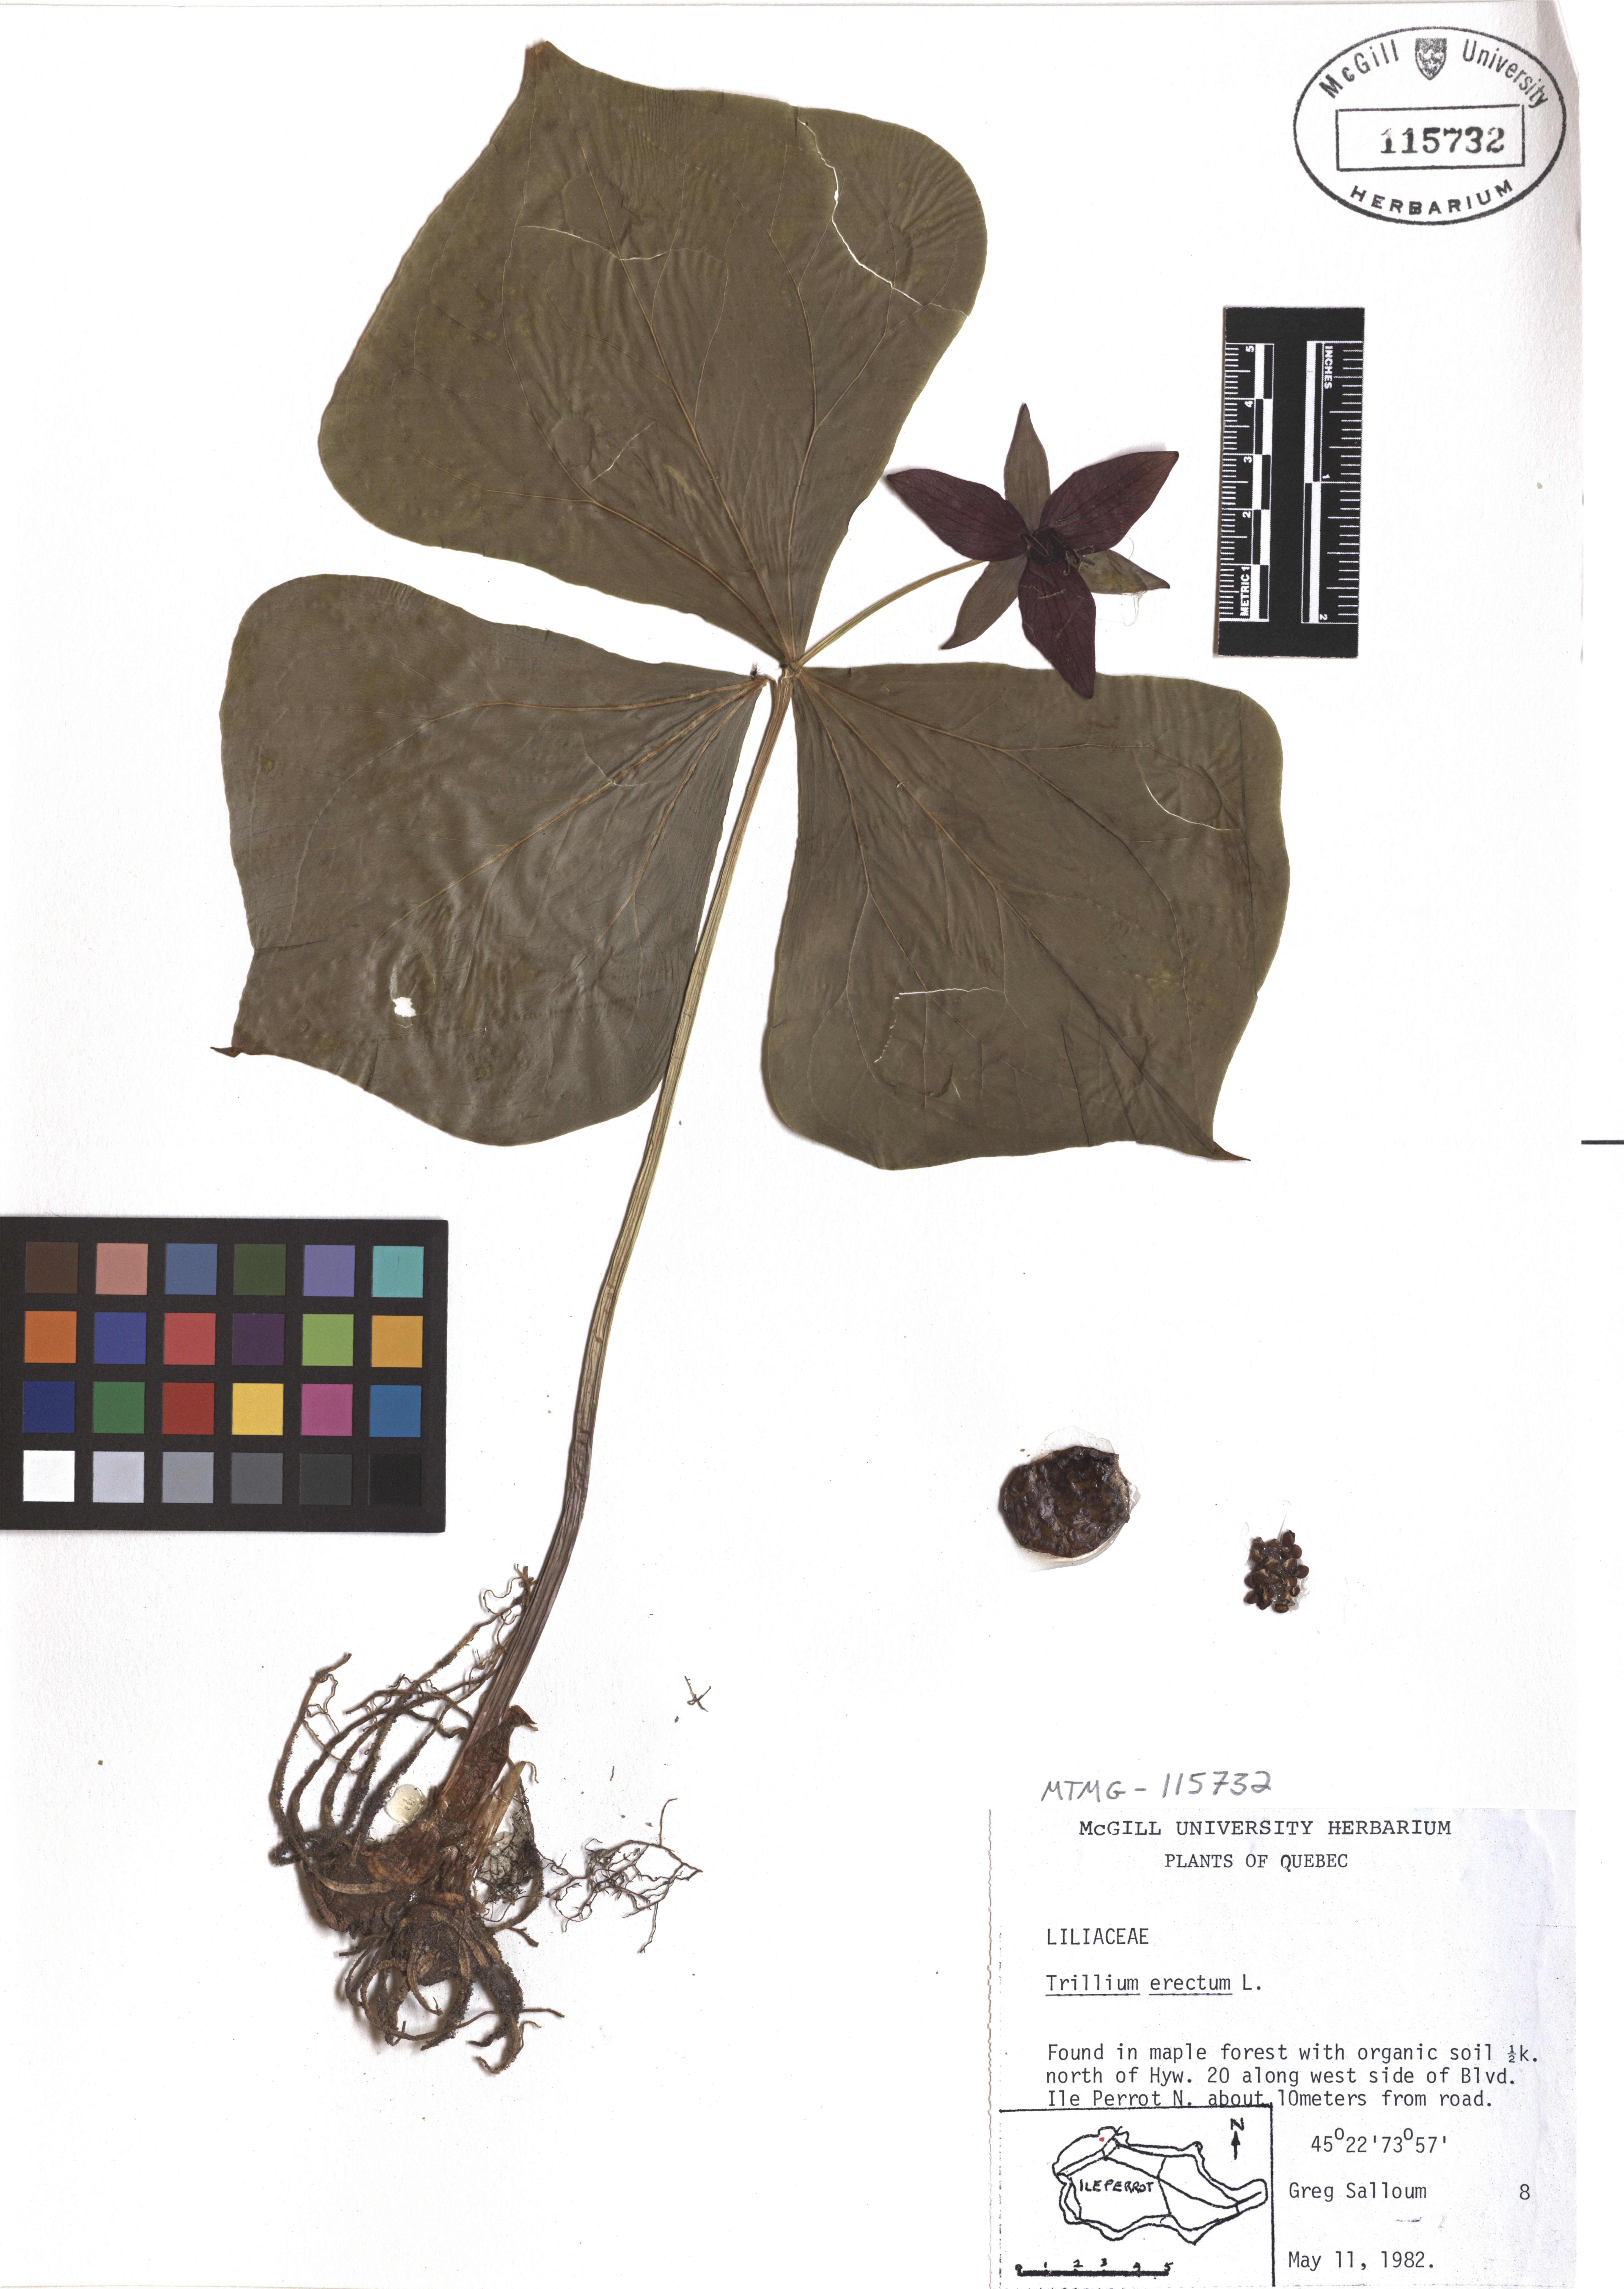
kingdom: Plantae
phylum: Tracheophyta
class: Liliopsida
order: Liliales
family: Melanthiaceae
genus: Trillium
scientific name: Trillium erectum
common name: Purple trillium
